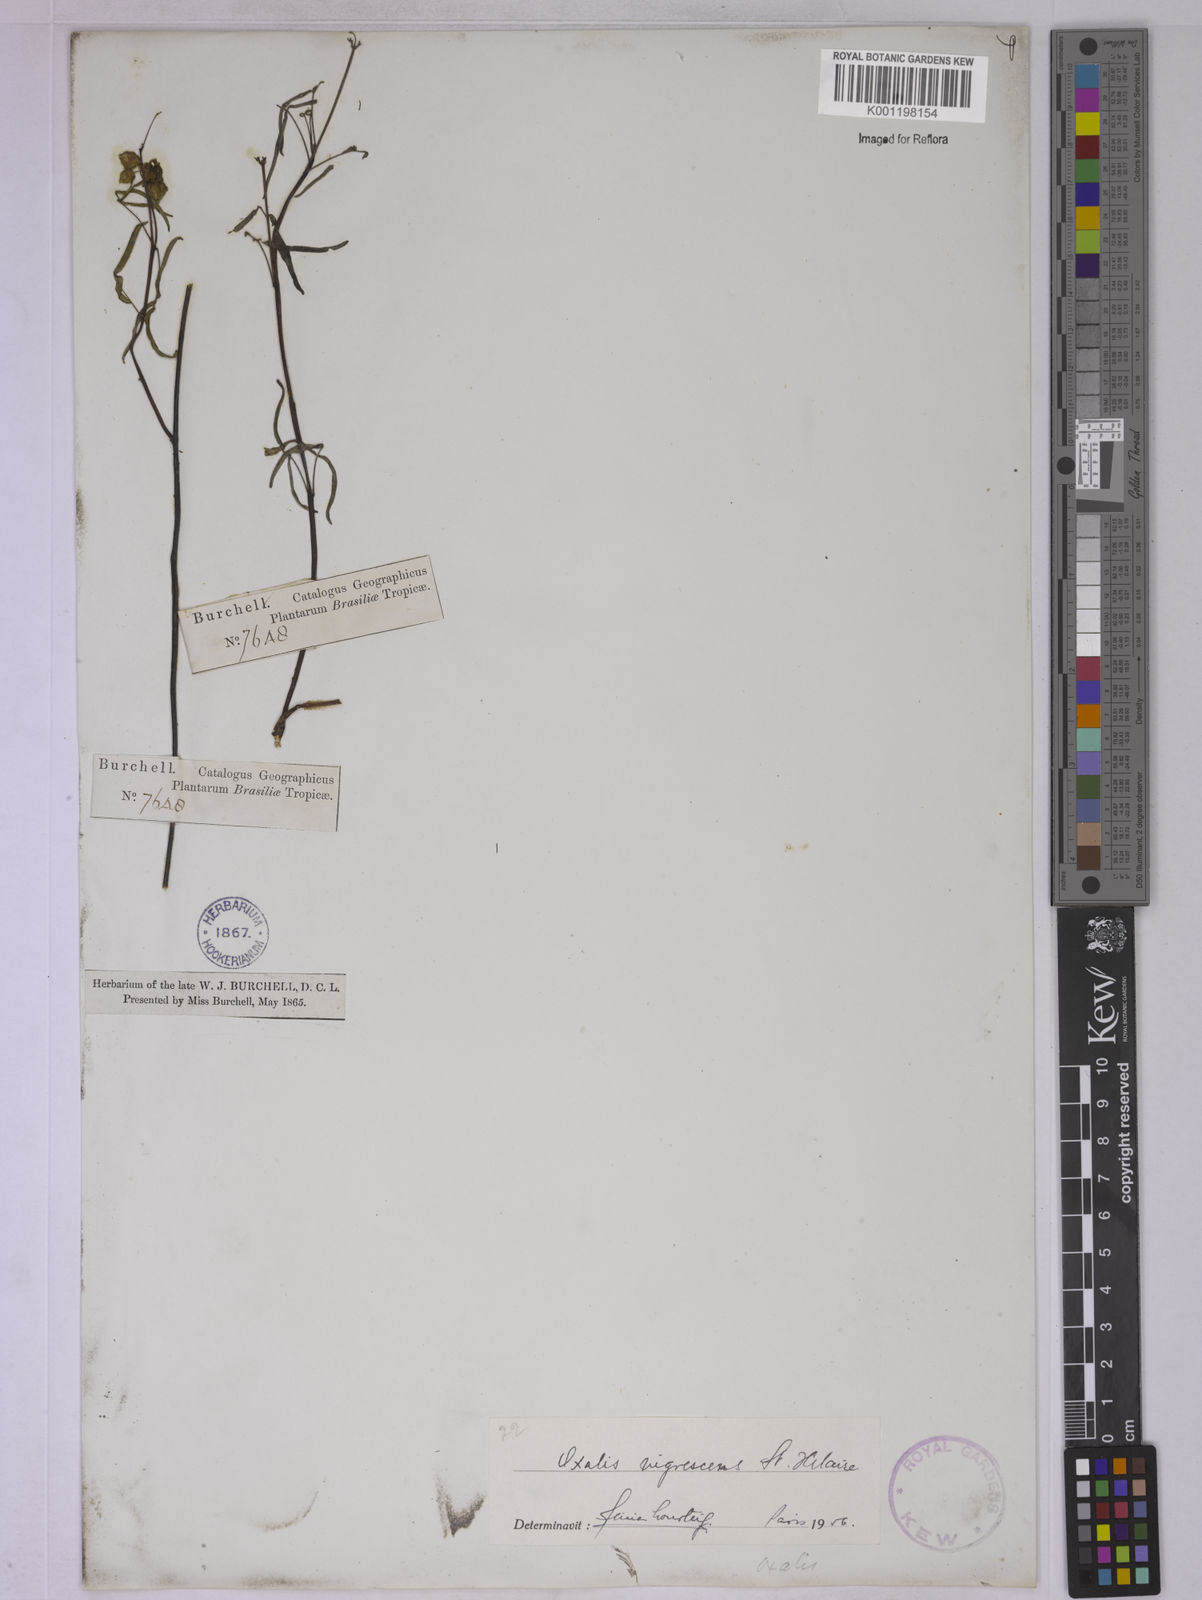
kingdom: Plantae
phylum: Tracheophyta
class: Magnoliopsida
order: Oxalidales
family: Oxalidaceae
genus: Oxalis
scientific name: Oxalis nigrescens
